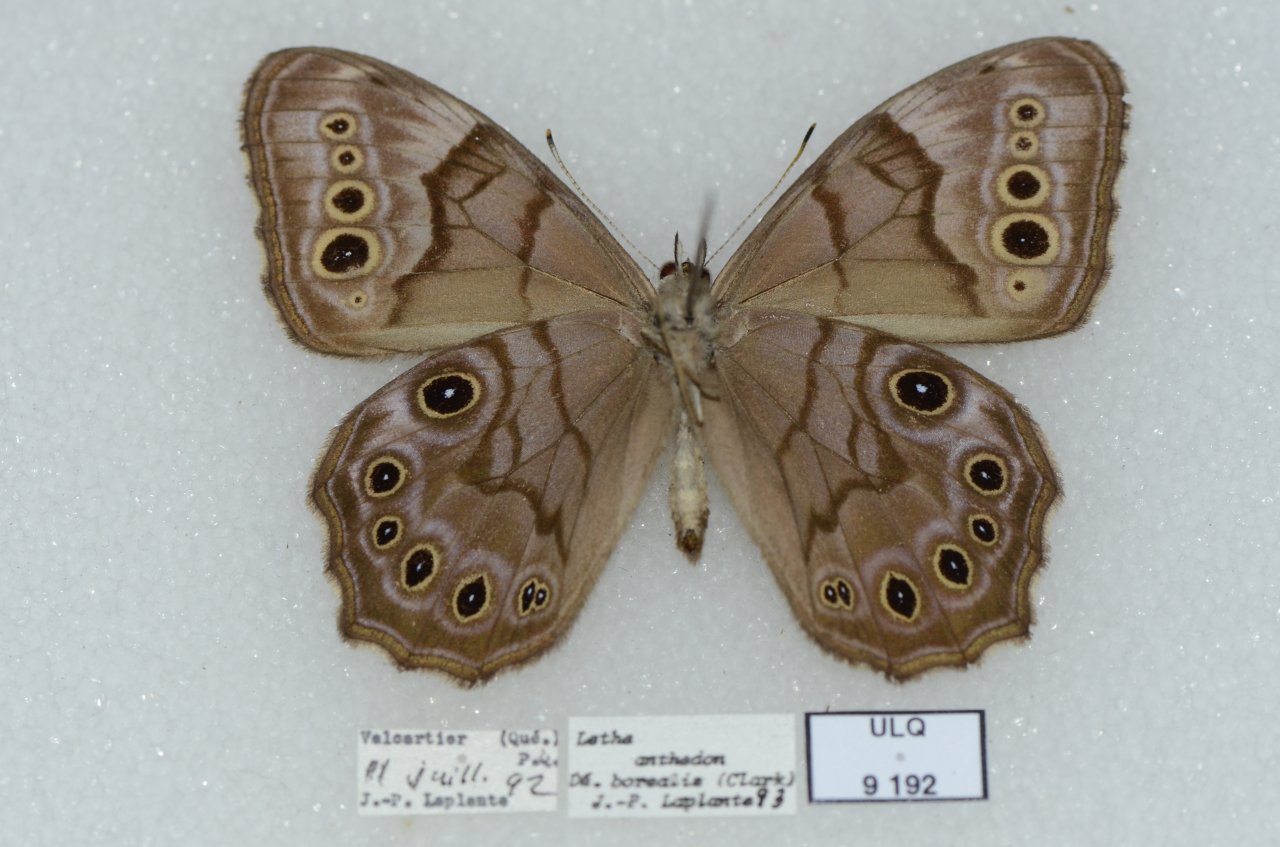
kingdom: Animalia
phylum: Arthropoda
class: Insecta
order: Lepidoptera
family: Nymphalidae
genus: Lethe
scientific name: Lethe anthedon
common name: Northern Pearly-Eye
